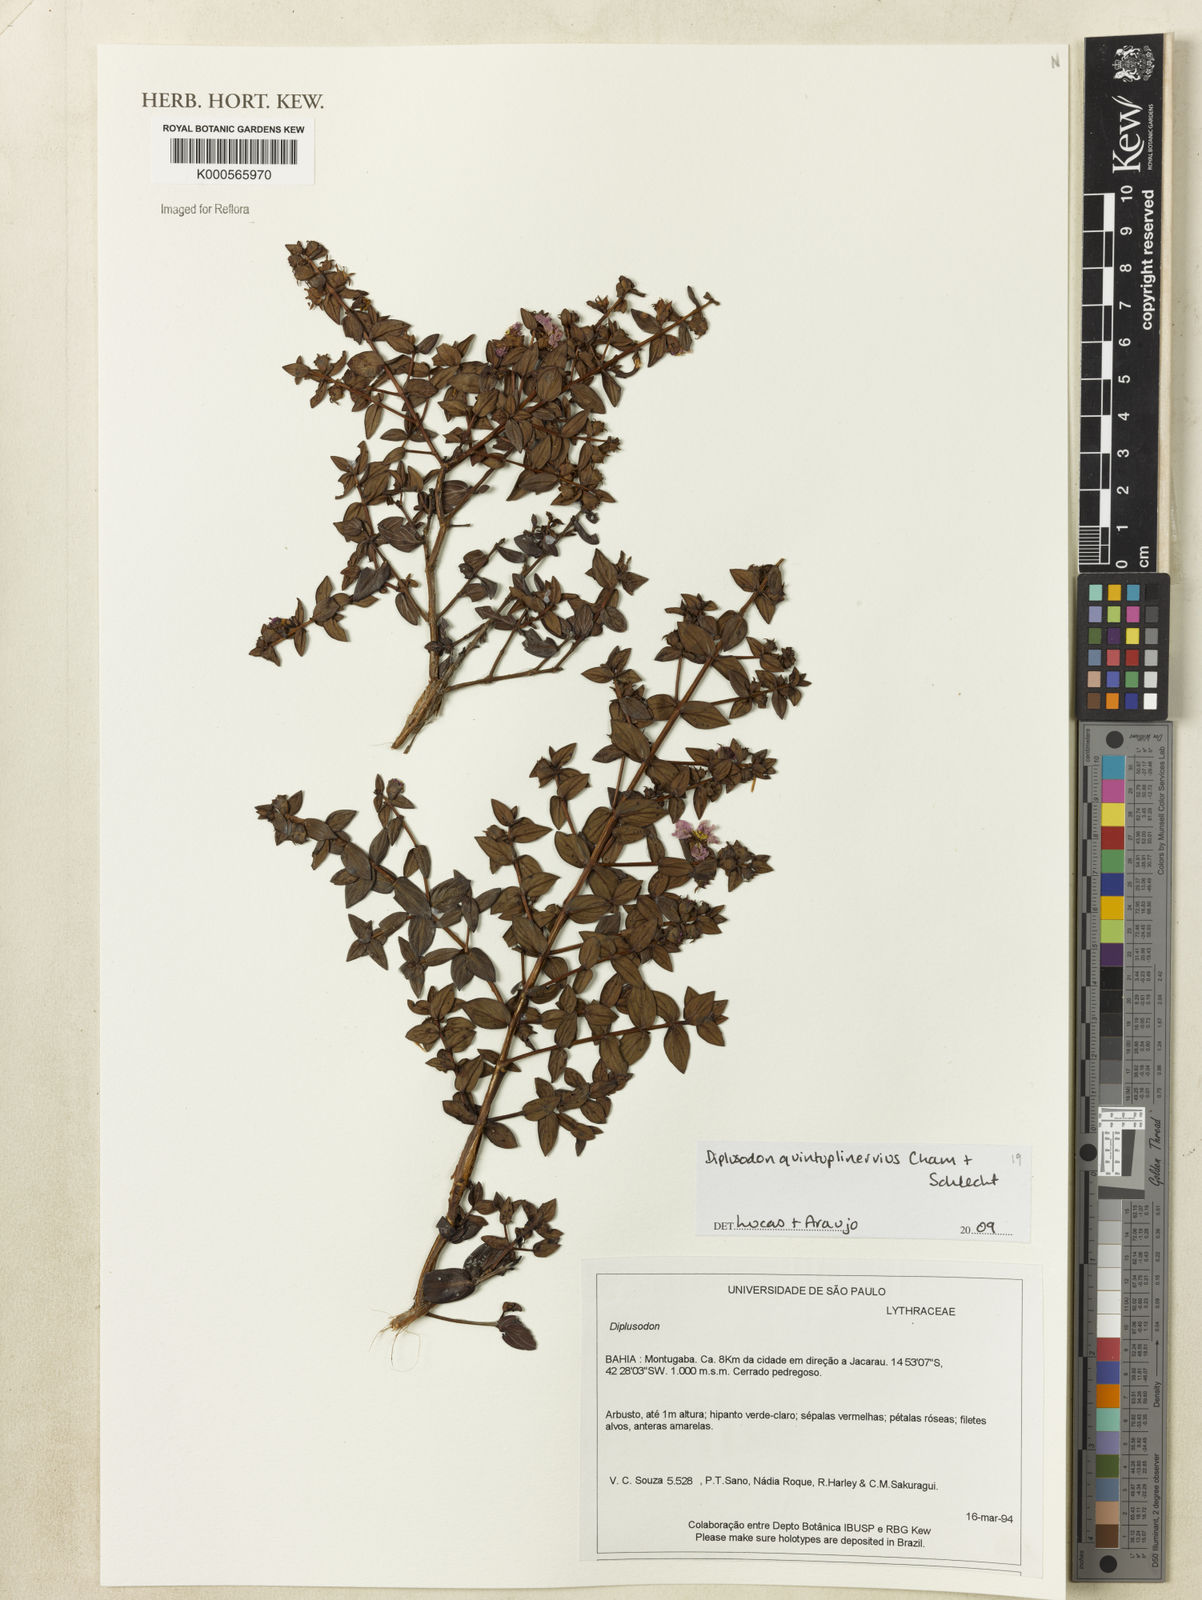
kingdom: Plantae
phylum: Tracheophyta
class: Magnoliopsida
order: Myrtales
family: Lythraceae
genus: Diplusodon
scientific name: Diplusodon
